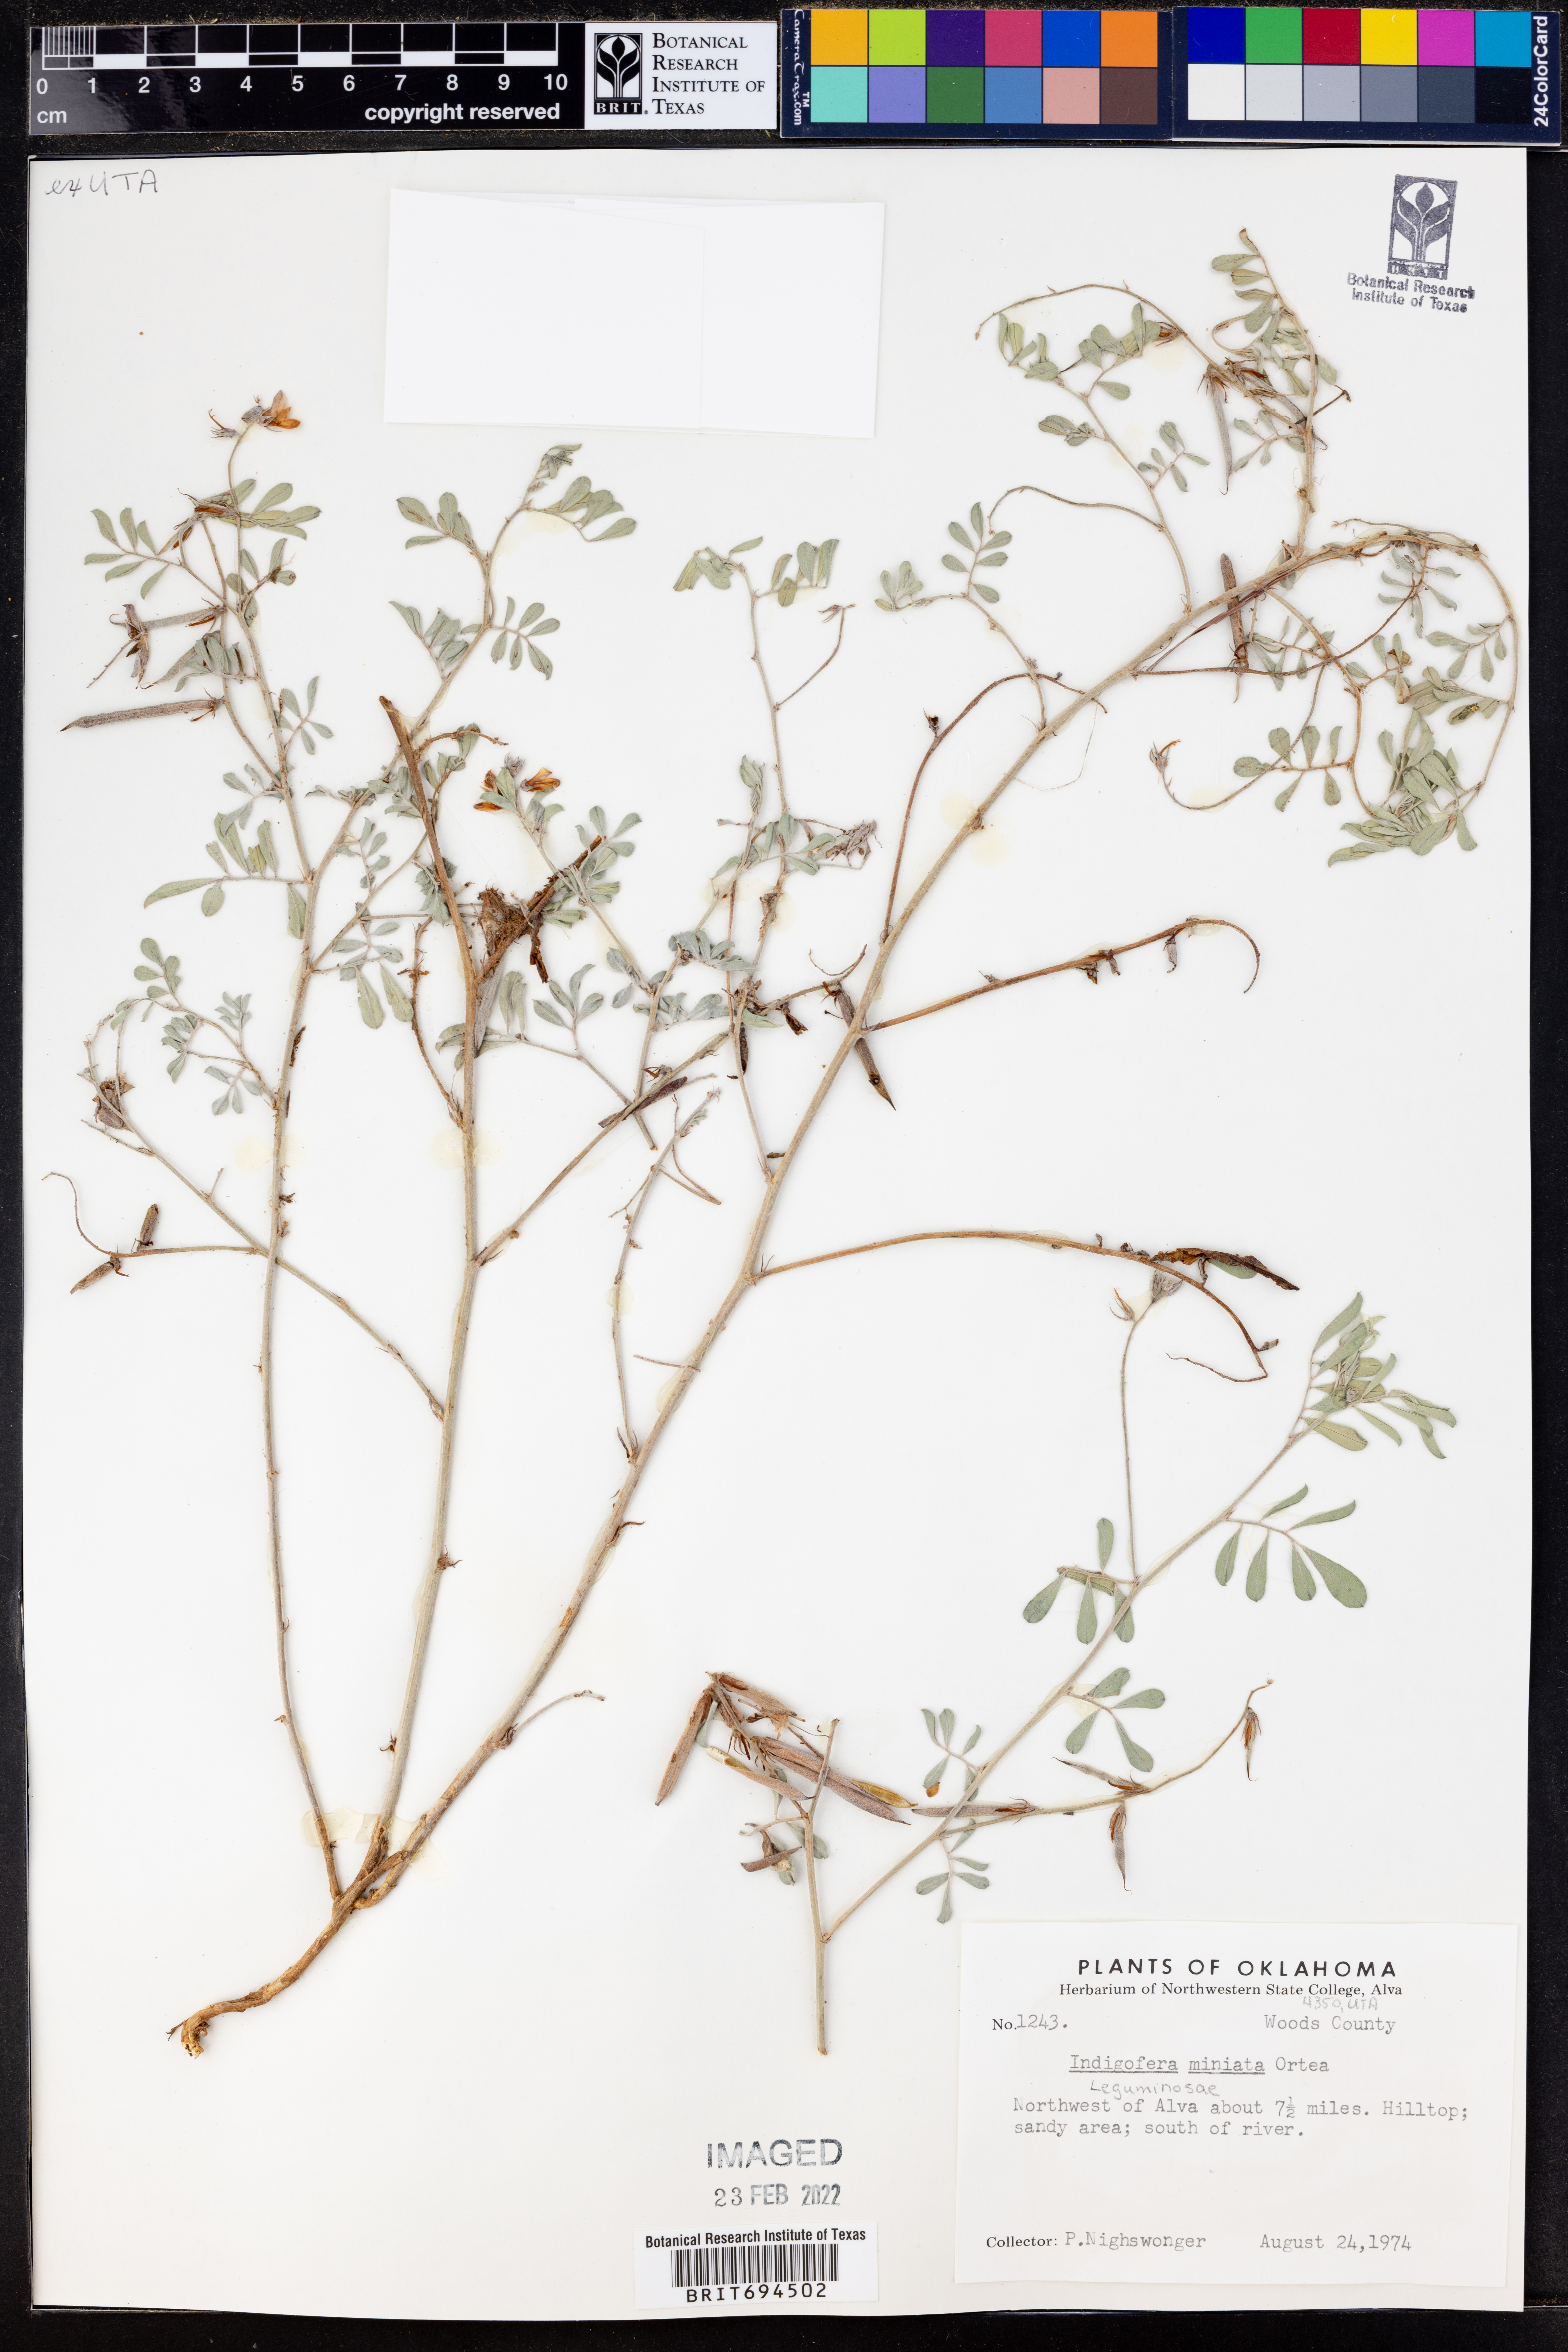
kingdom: Plantae
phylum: Tracheophyta
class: Magnoliopsida
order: Fabales
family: Fabaceae
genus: Indigofera
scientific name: Indigofera miniata
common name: Coast indigo
